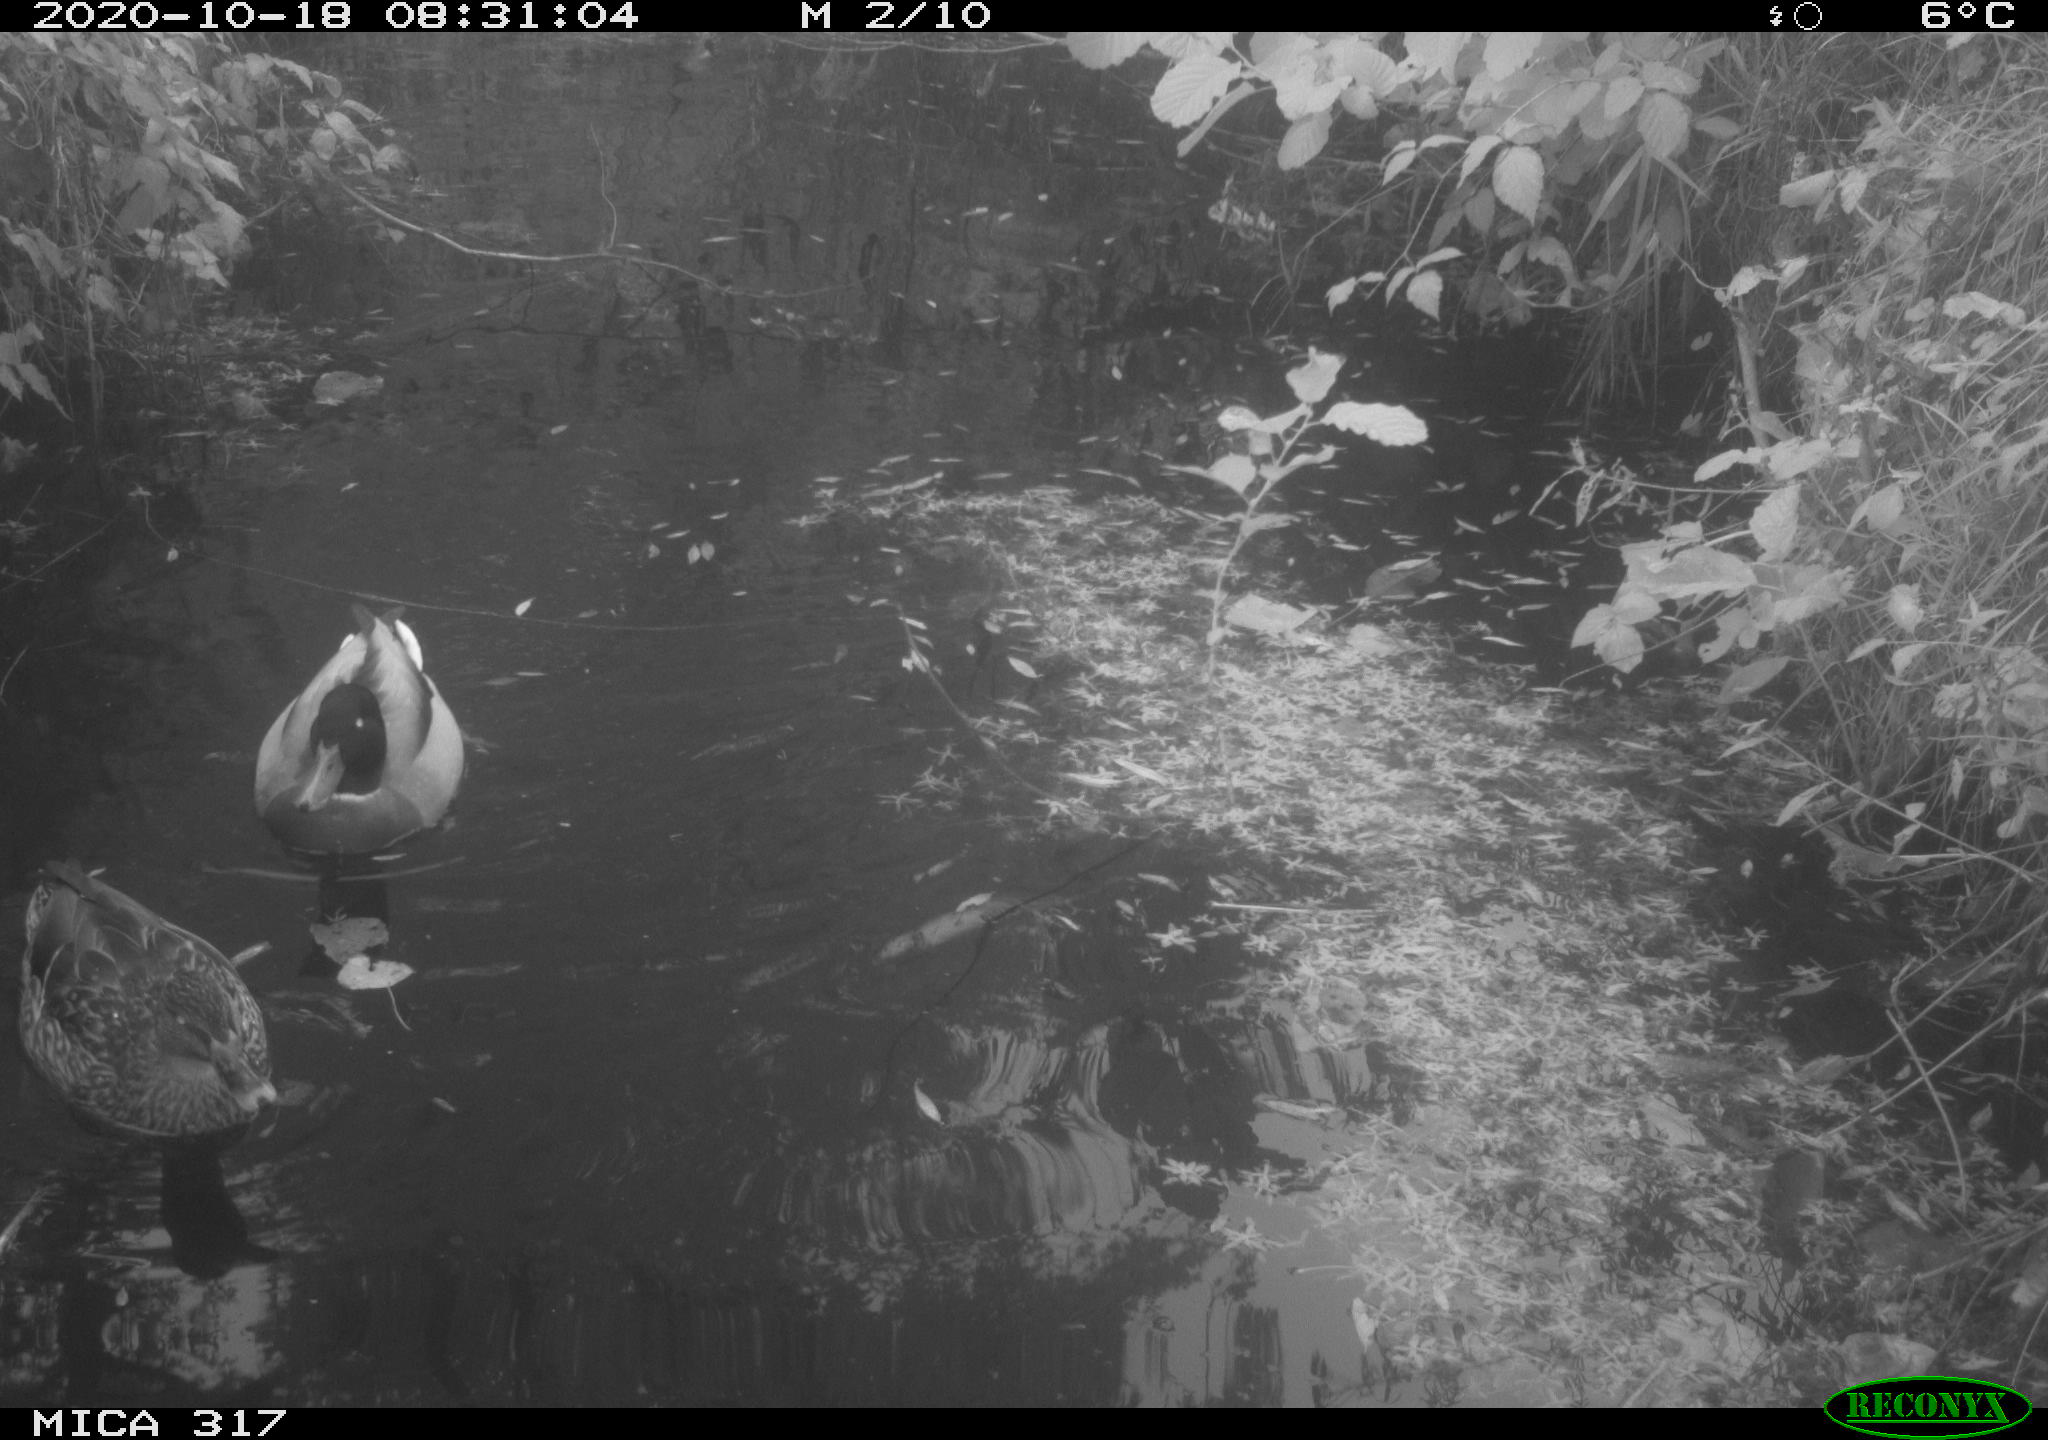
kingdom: Animalia
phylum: Chordata
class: Aves
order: Anseriformes
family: Anatidae
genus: Anas
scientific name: Anas platyrhynchos
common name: Mallard
